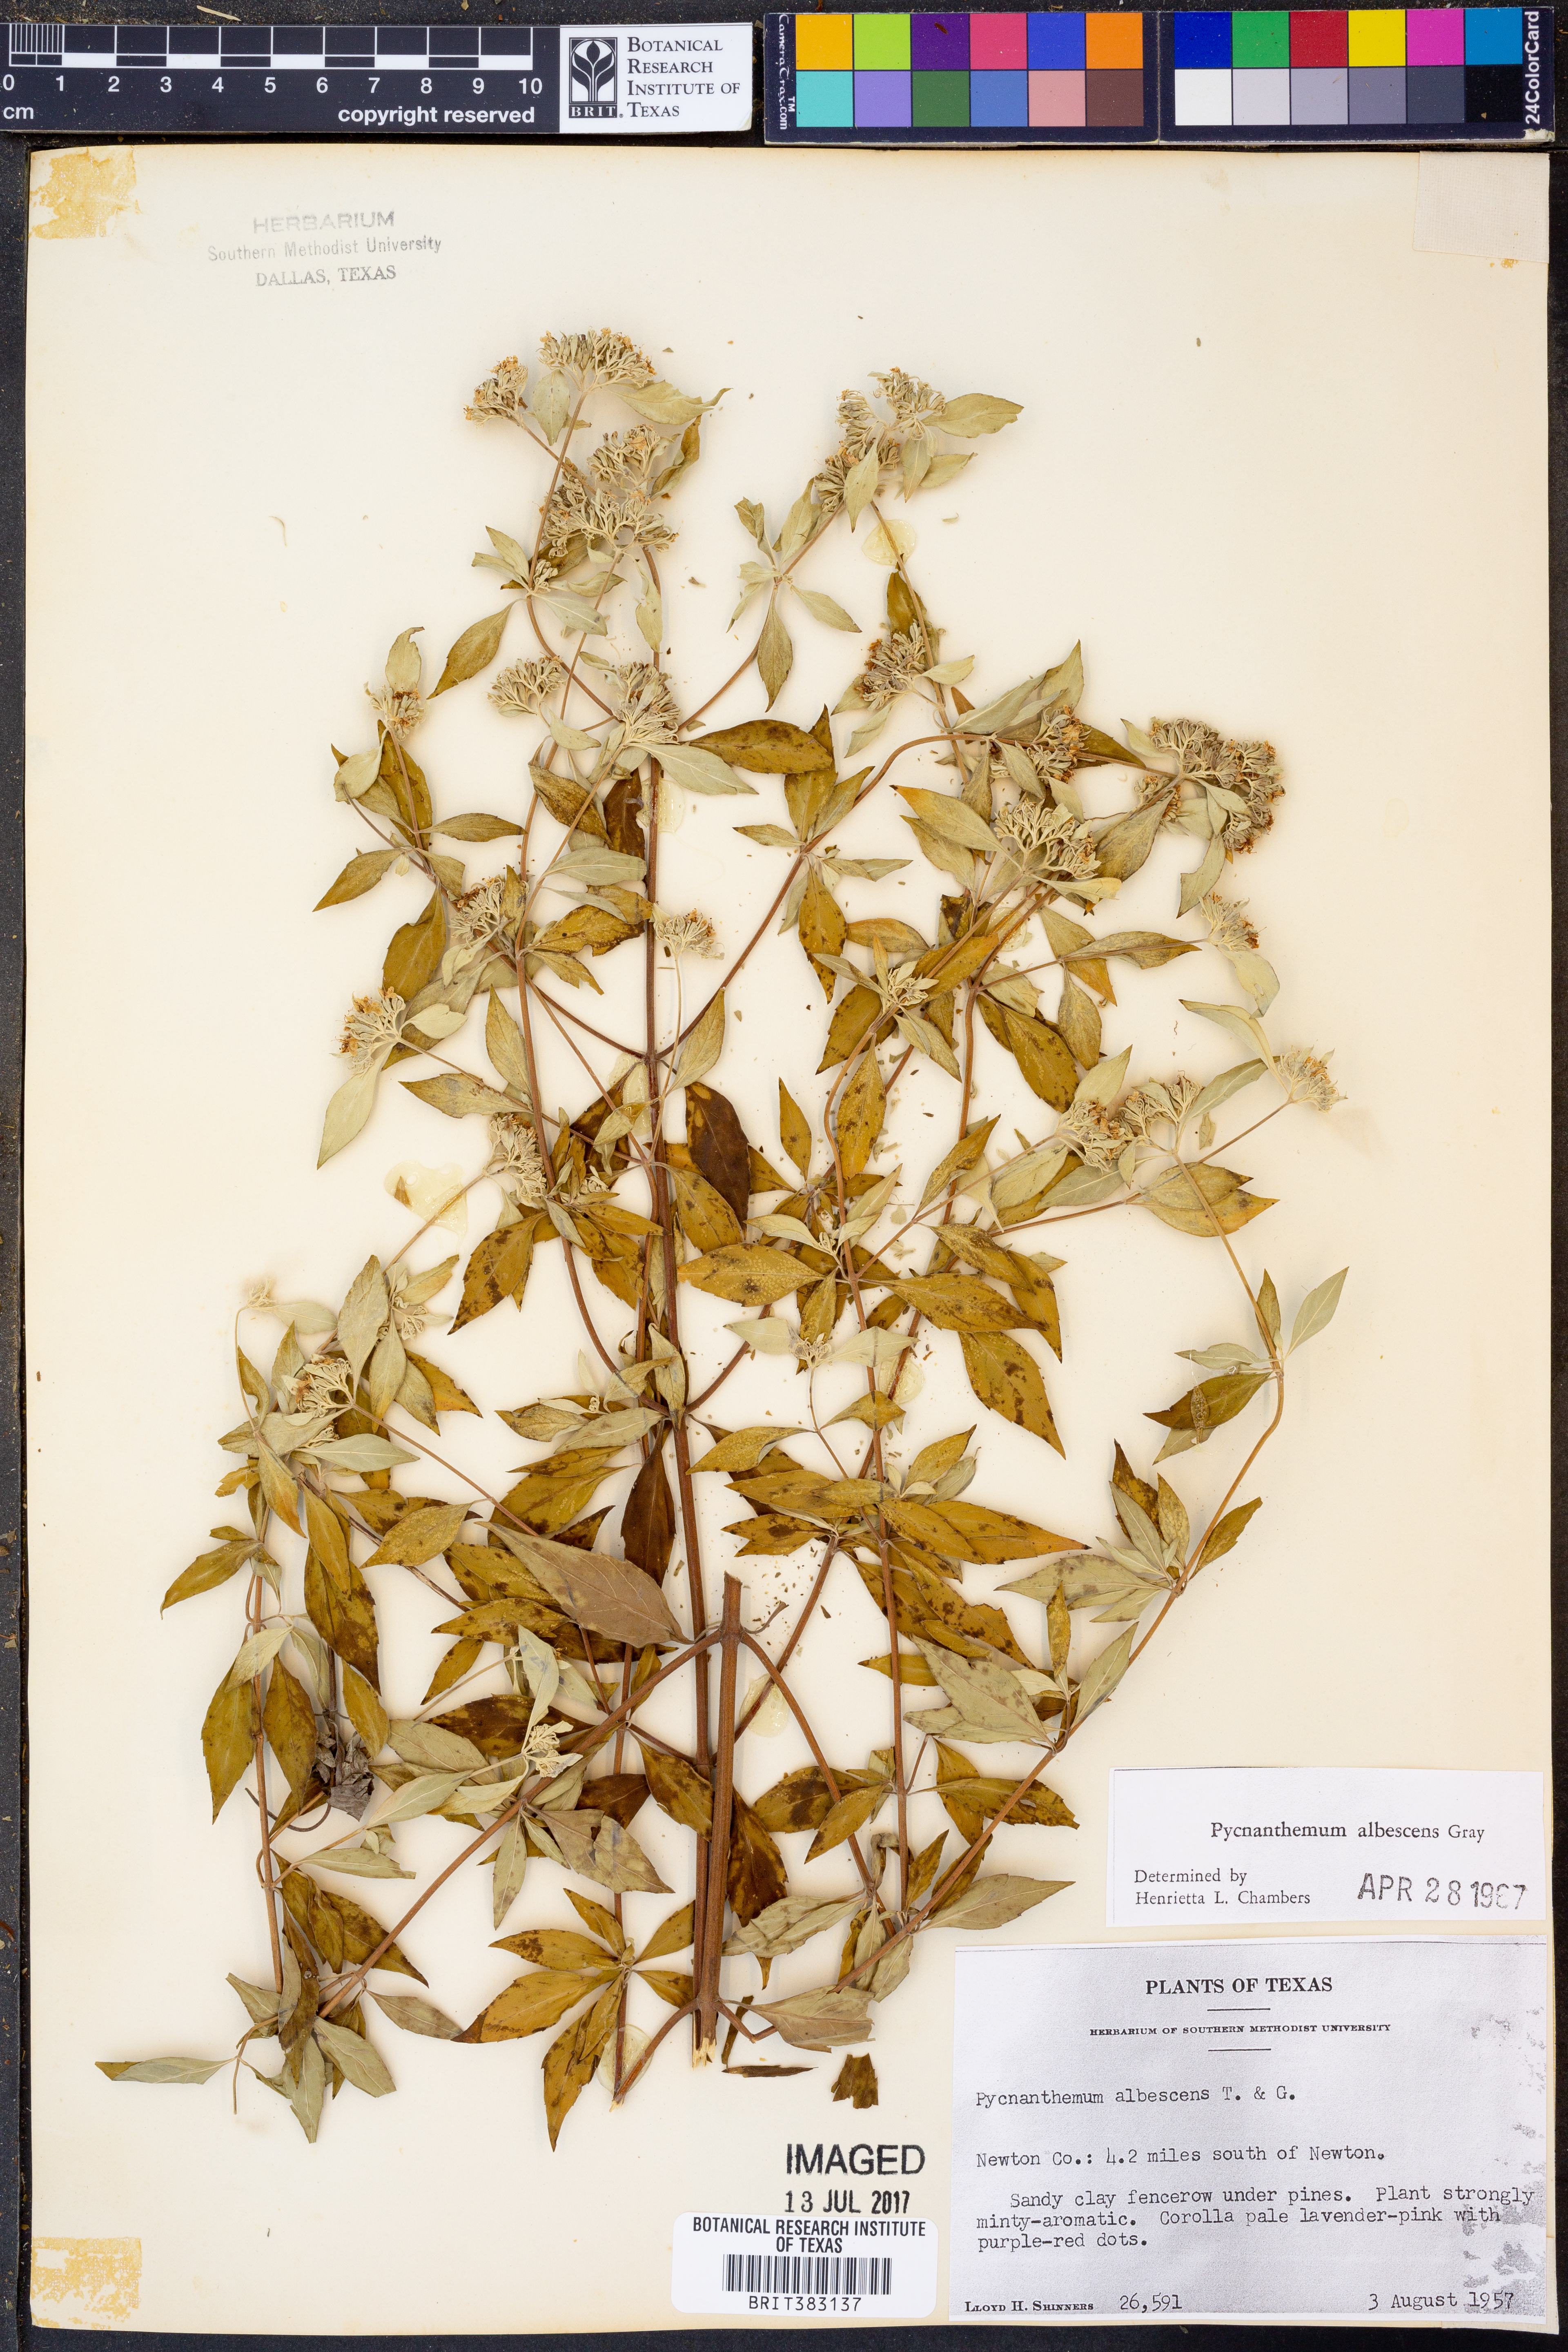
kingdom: Plantae
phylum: Tracheophyta
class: Magnoliopsida
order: Lamiales
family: Lamiaceae
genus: Pycnanthemum
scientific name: Pycnanthemum albescens
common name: White-leaf mountain-mint
